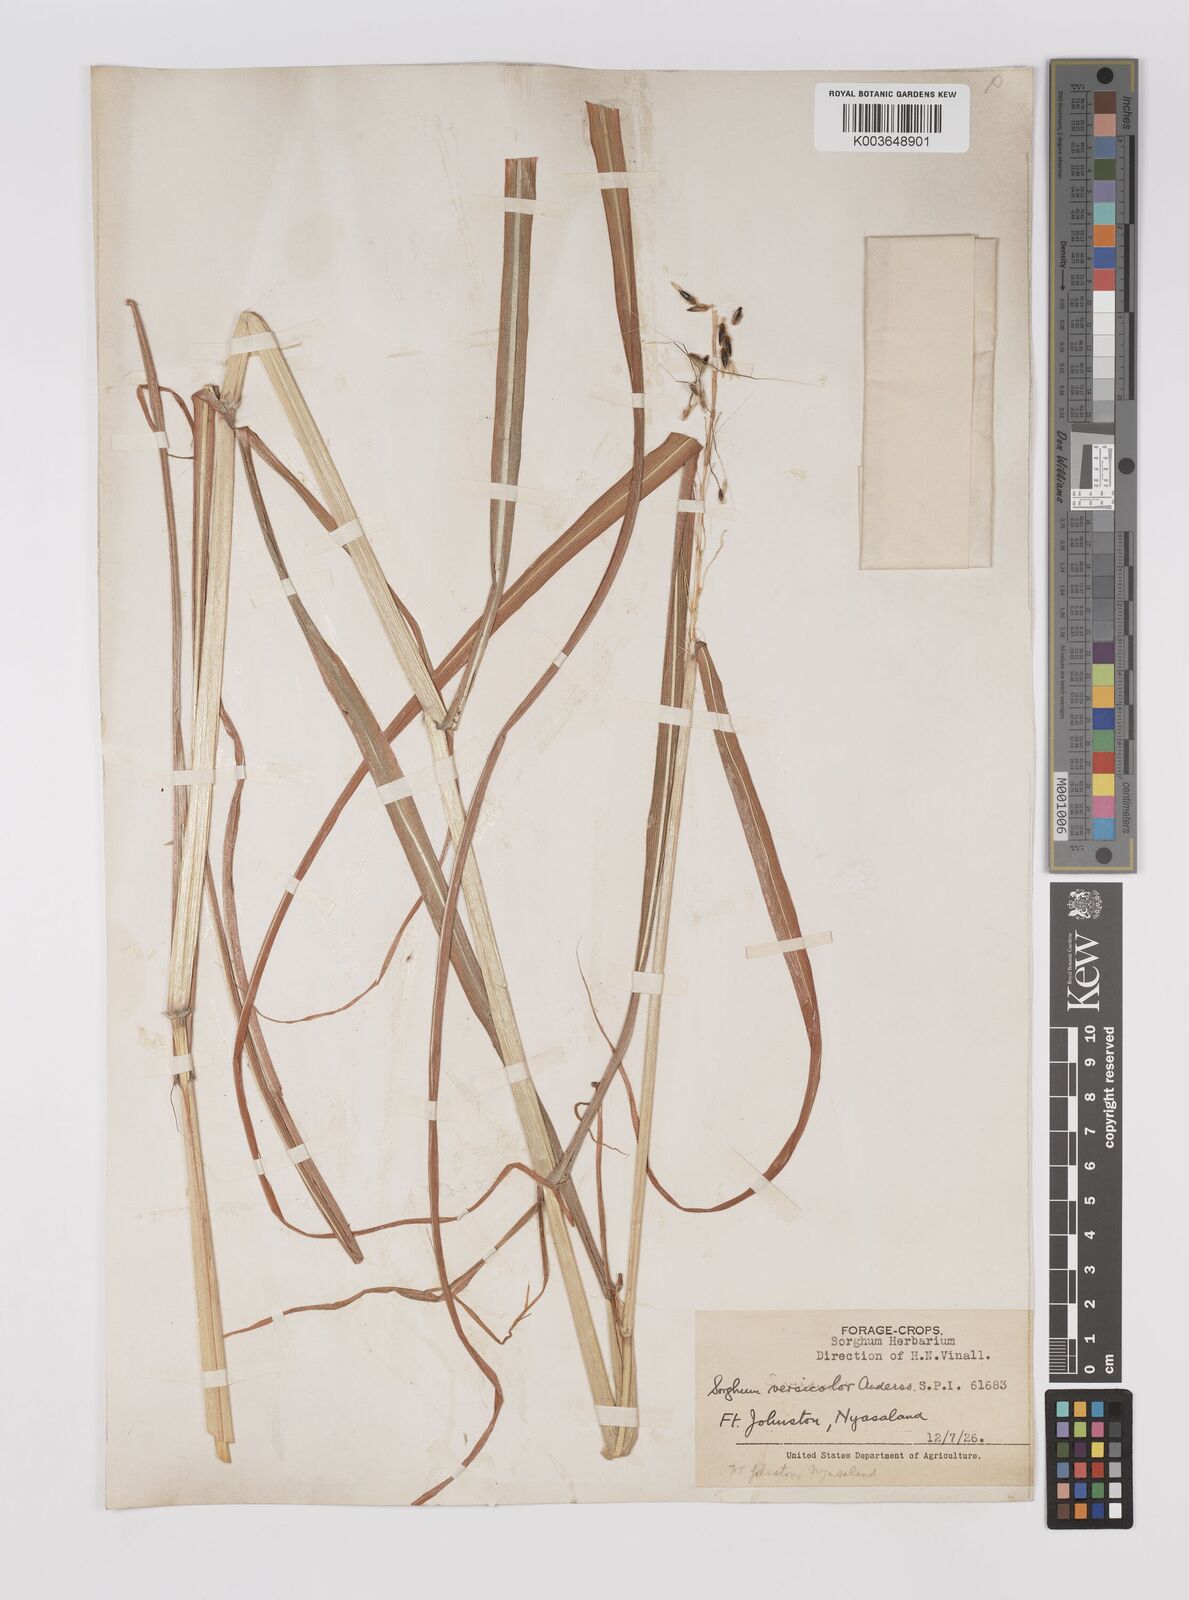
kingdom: Plantae
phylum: Tracheophyta
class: Liliopsida
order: Poales
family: Poaceae
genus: Sarga
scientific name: Sarga versicolor
